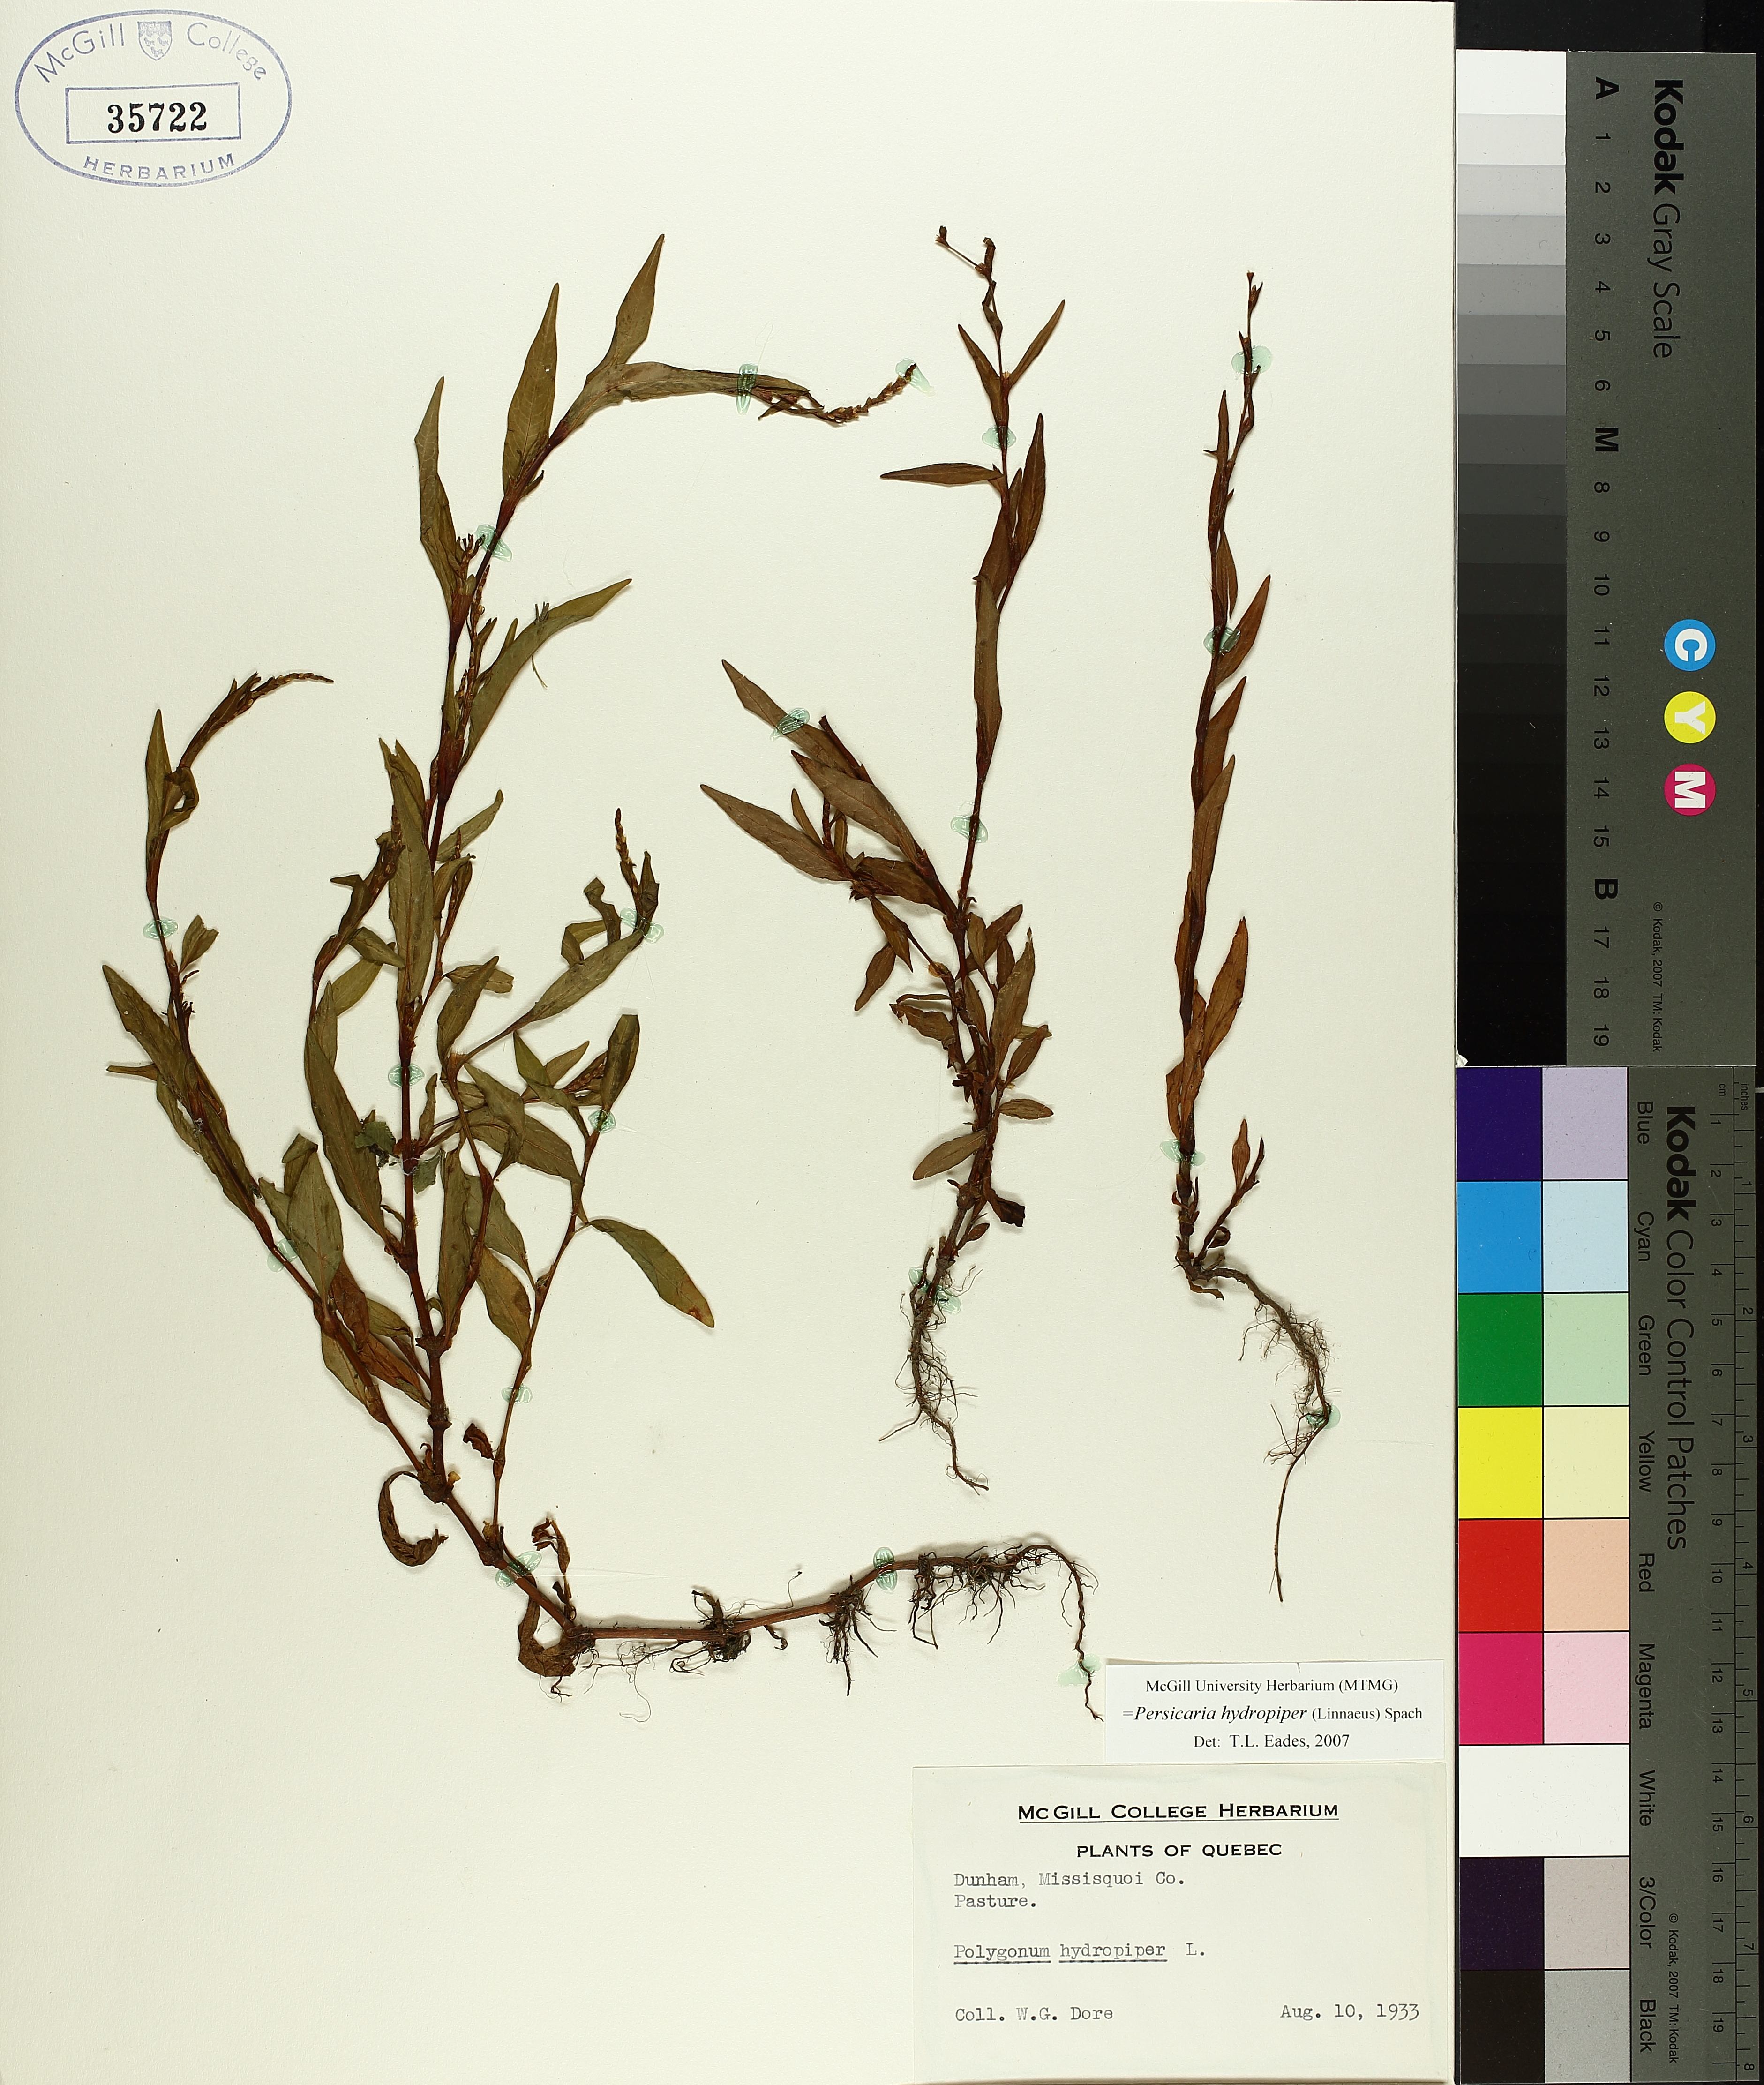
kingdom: Plantae
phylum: Tracheophyta
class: Magnoliopsida
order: Caryophyllales
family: Polygonaceae
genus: Persicaria
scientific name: Persicaria hydropiper
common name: Water-pepper
